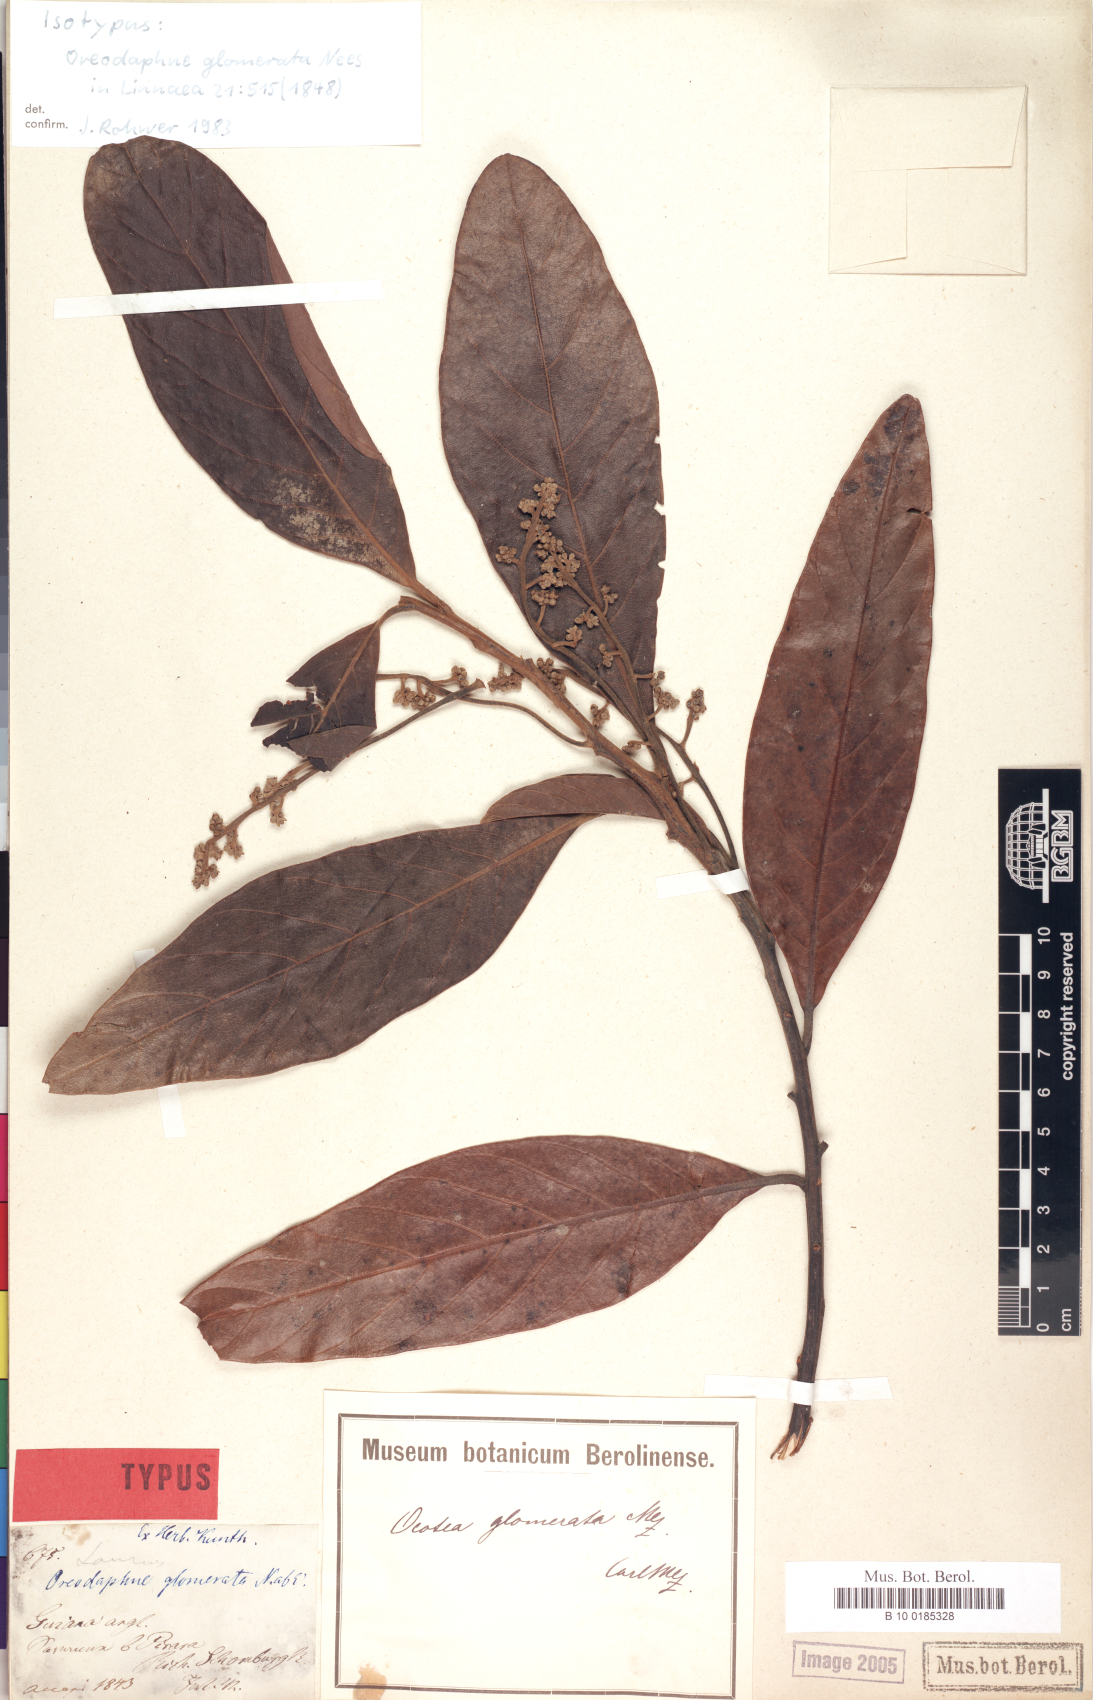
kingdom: Plantae
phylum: Tracheophyta
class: Magnoliopsida
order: Laurales
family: Lauraceae
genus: Ocotea
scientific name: Ocotea glomerata
